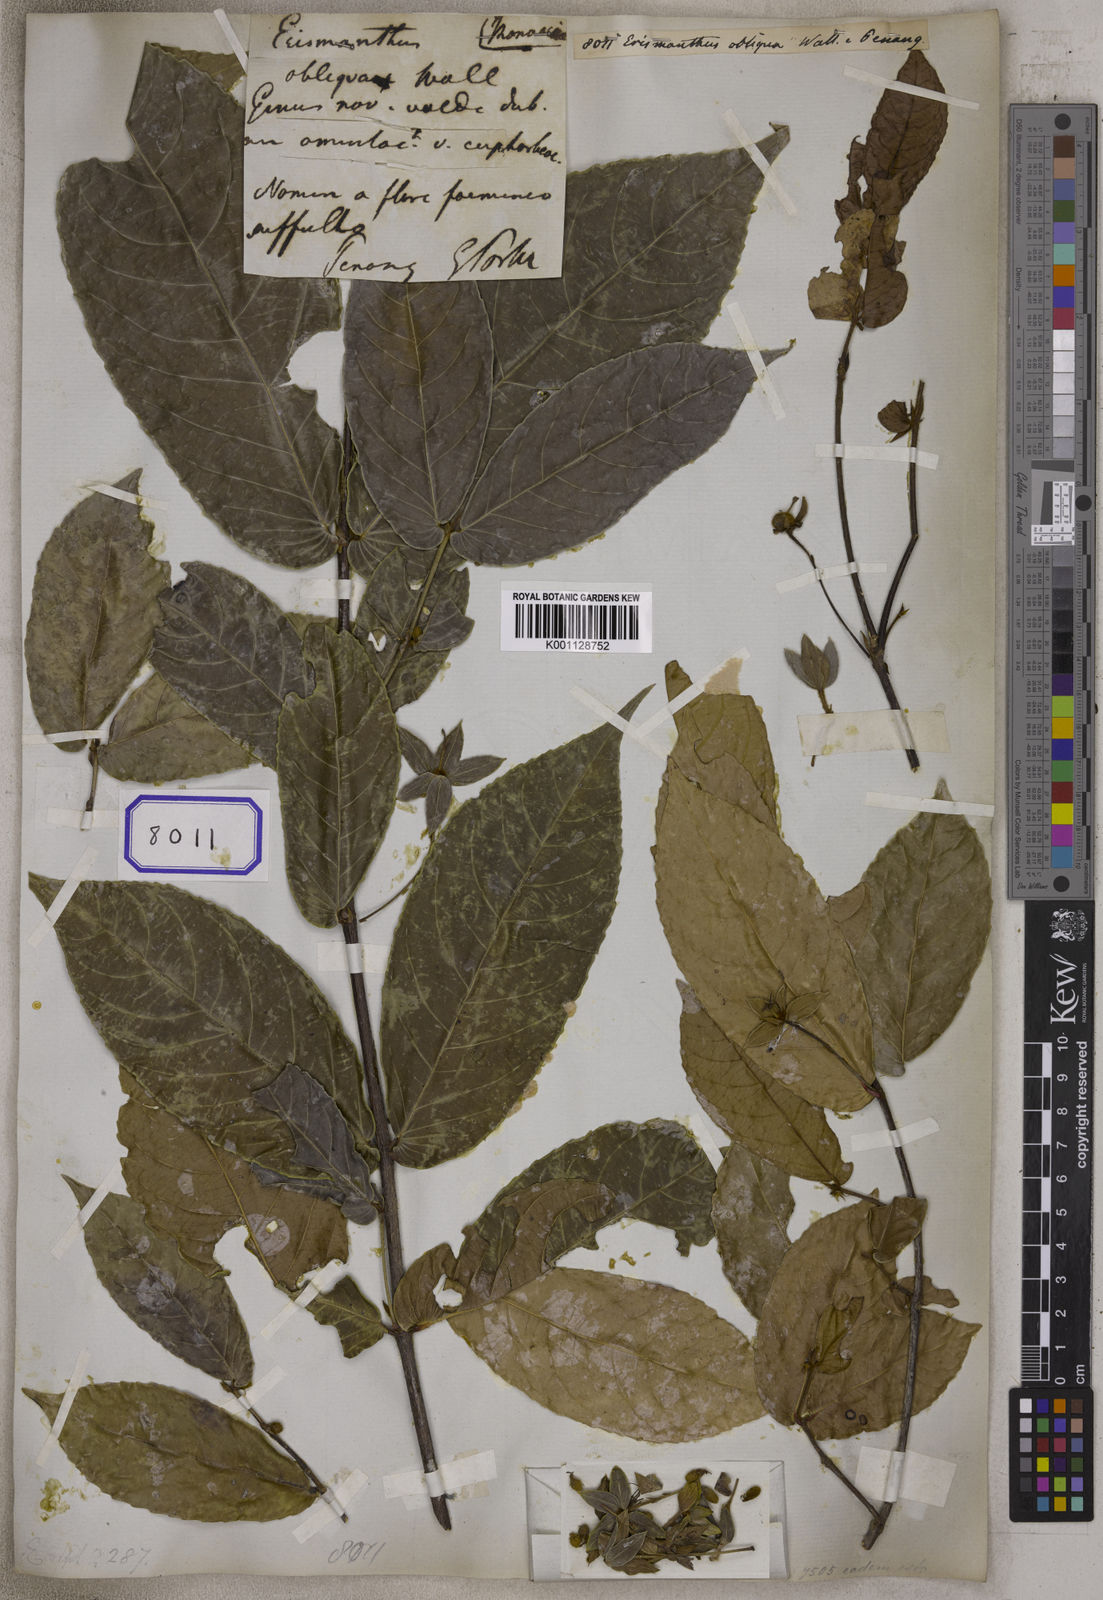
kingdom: Plantae
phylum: Tracheophyta
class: Magnoliopsida
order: Malpighiales
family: Euphorbiaceae
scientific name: Euphorbiaceae
